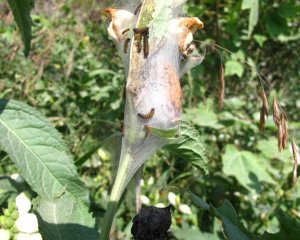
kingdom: Animalia
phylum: Arthropoda
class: Insecta
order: Lepidoptera
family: Nymphalidae
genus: Euphydryas
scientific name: Euphydryas phaeton
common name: Baltimore Checkerspot
